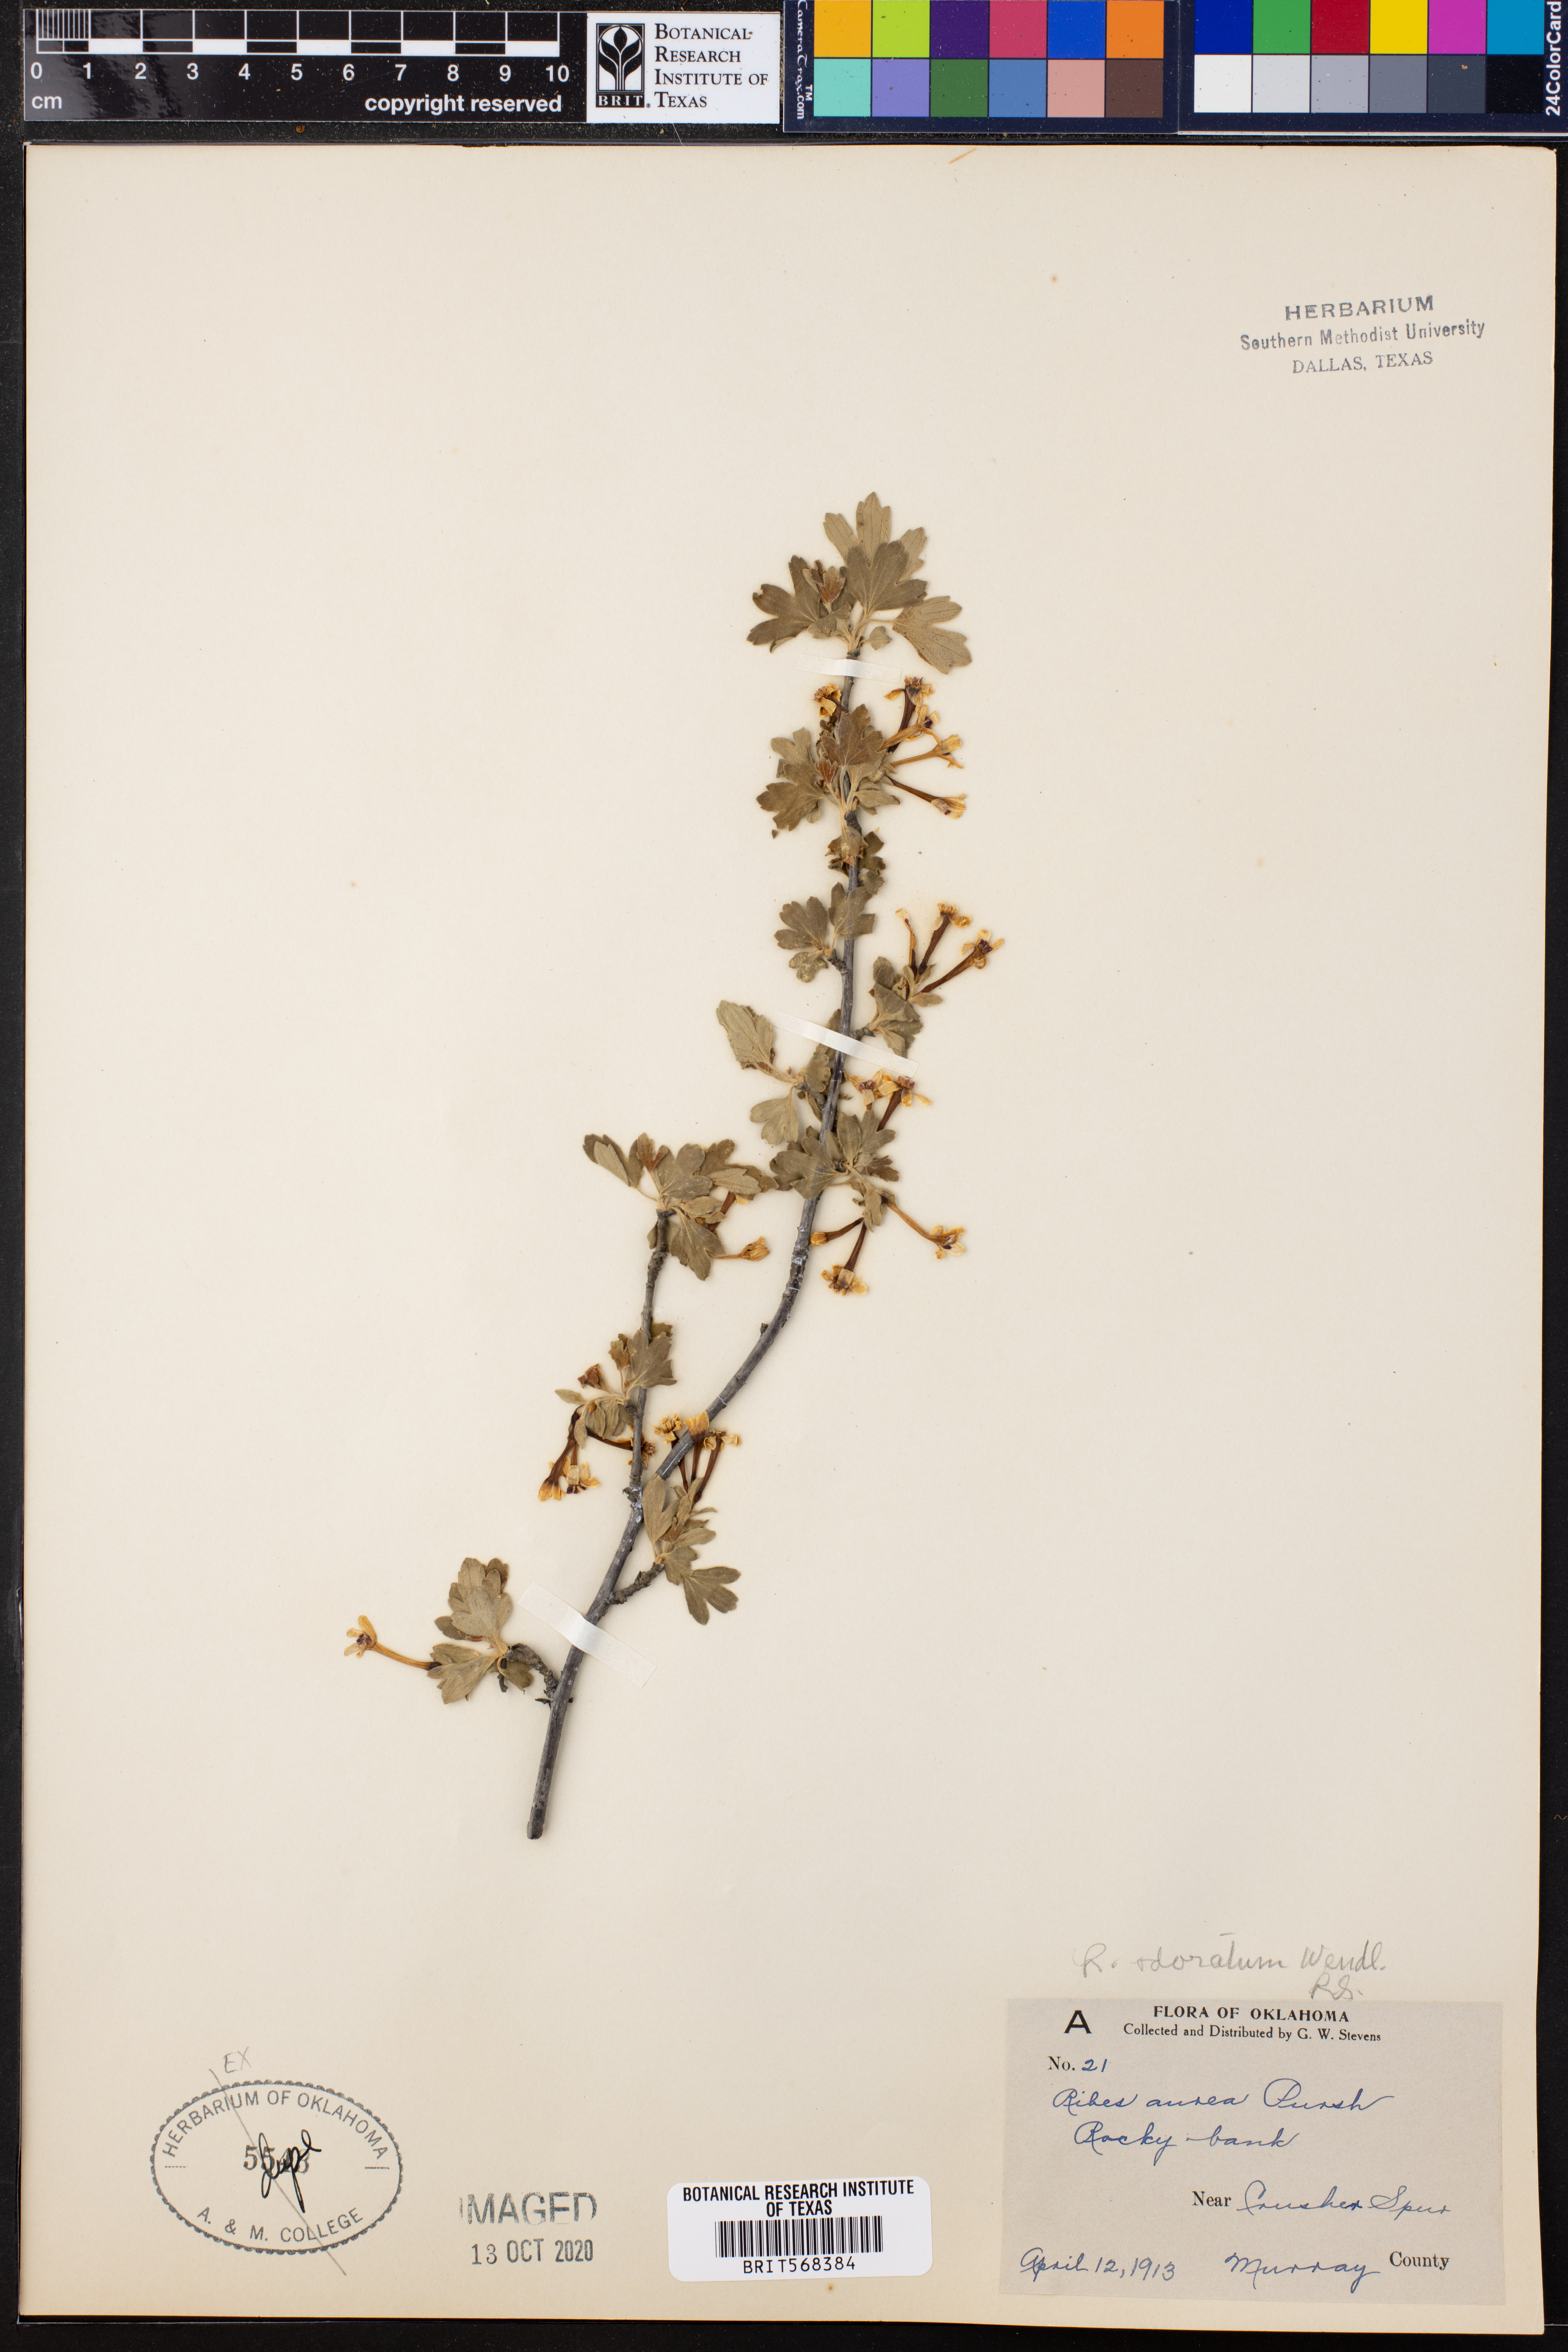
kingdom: Plantae
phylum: Tracheophyta
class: Magnoliopsida
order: Saxifragales
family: Grossulariaceae
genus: Ribes
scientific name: Ribes aureum
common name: Golden currant
